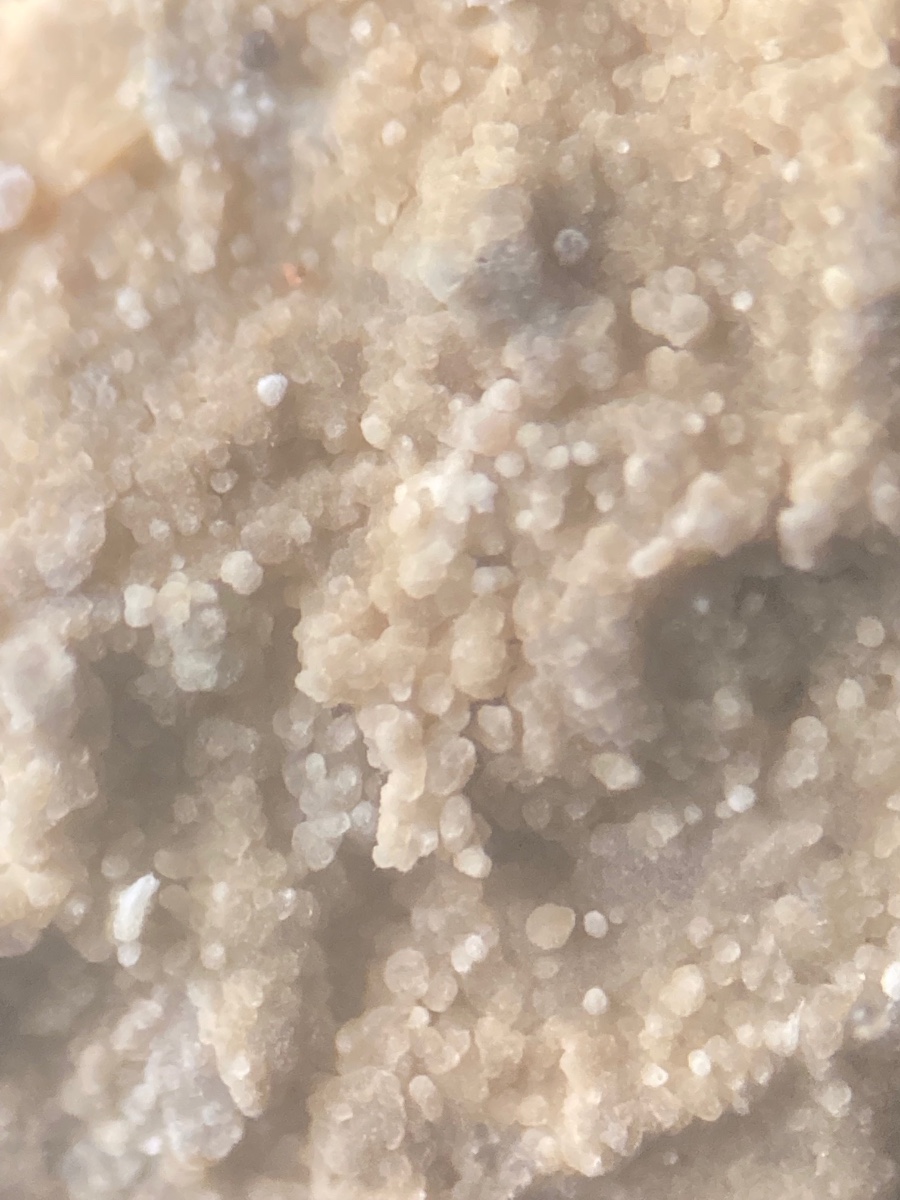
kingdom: Fungi
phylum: Basidiomycota
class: Agaricomycetes
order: Trechisporales
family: Sistotremataceae
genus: Trechispora
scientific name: Trechispora silvae-ryae
